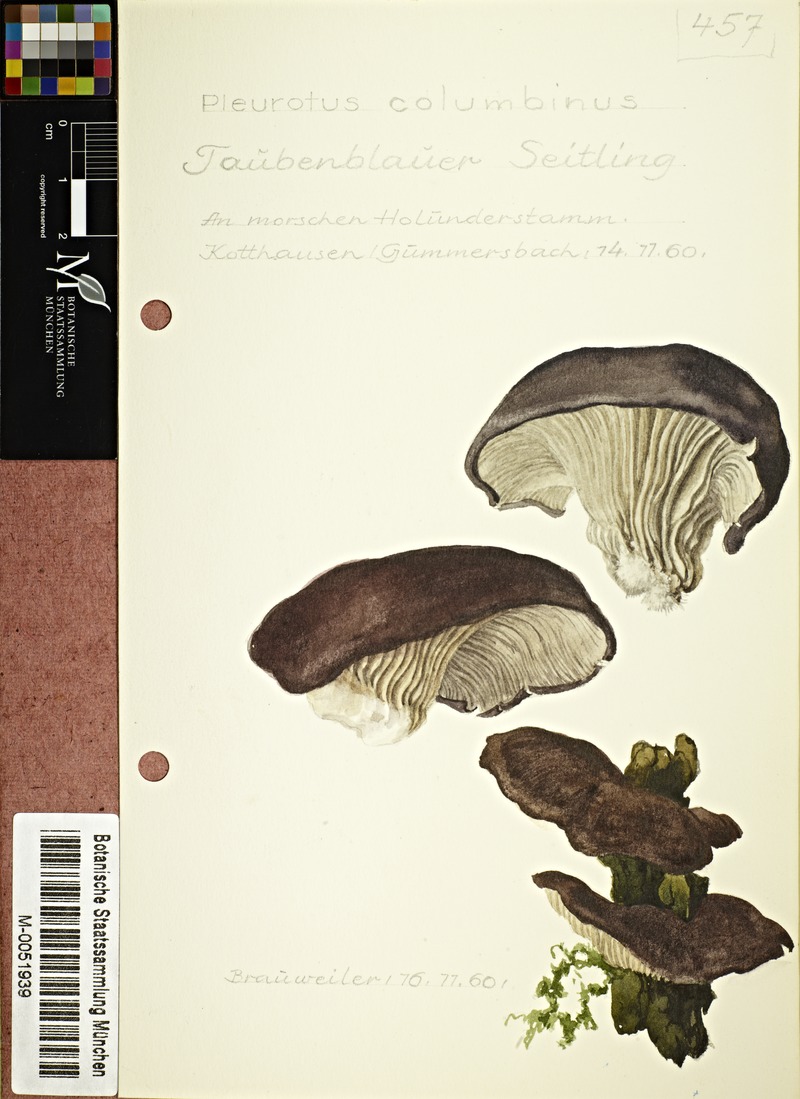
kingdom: Fungi
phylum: Basidiomycota
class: Agaricomycetes
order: Agaricales
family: Pleurotaceae
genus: Pleurotus
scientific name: Pleurotus columbinus
